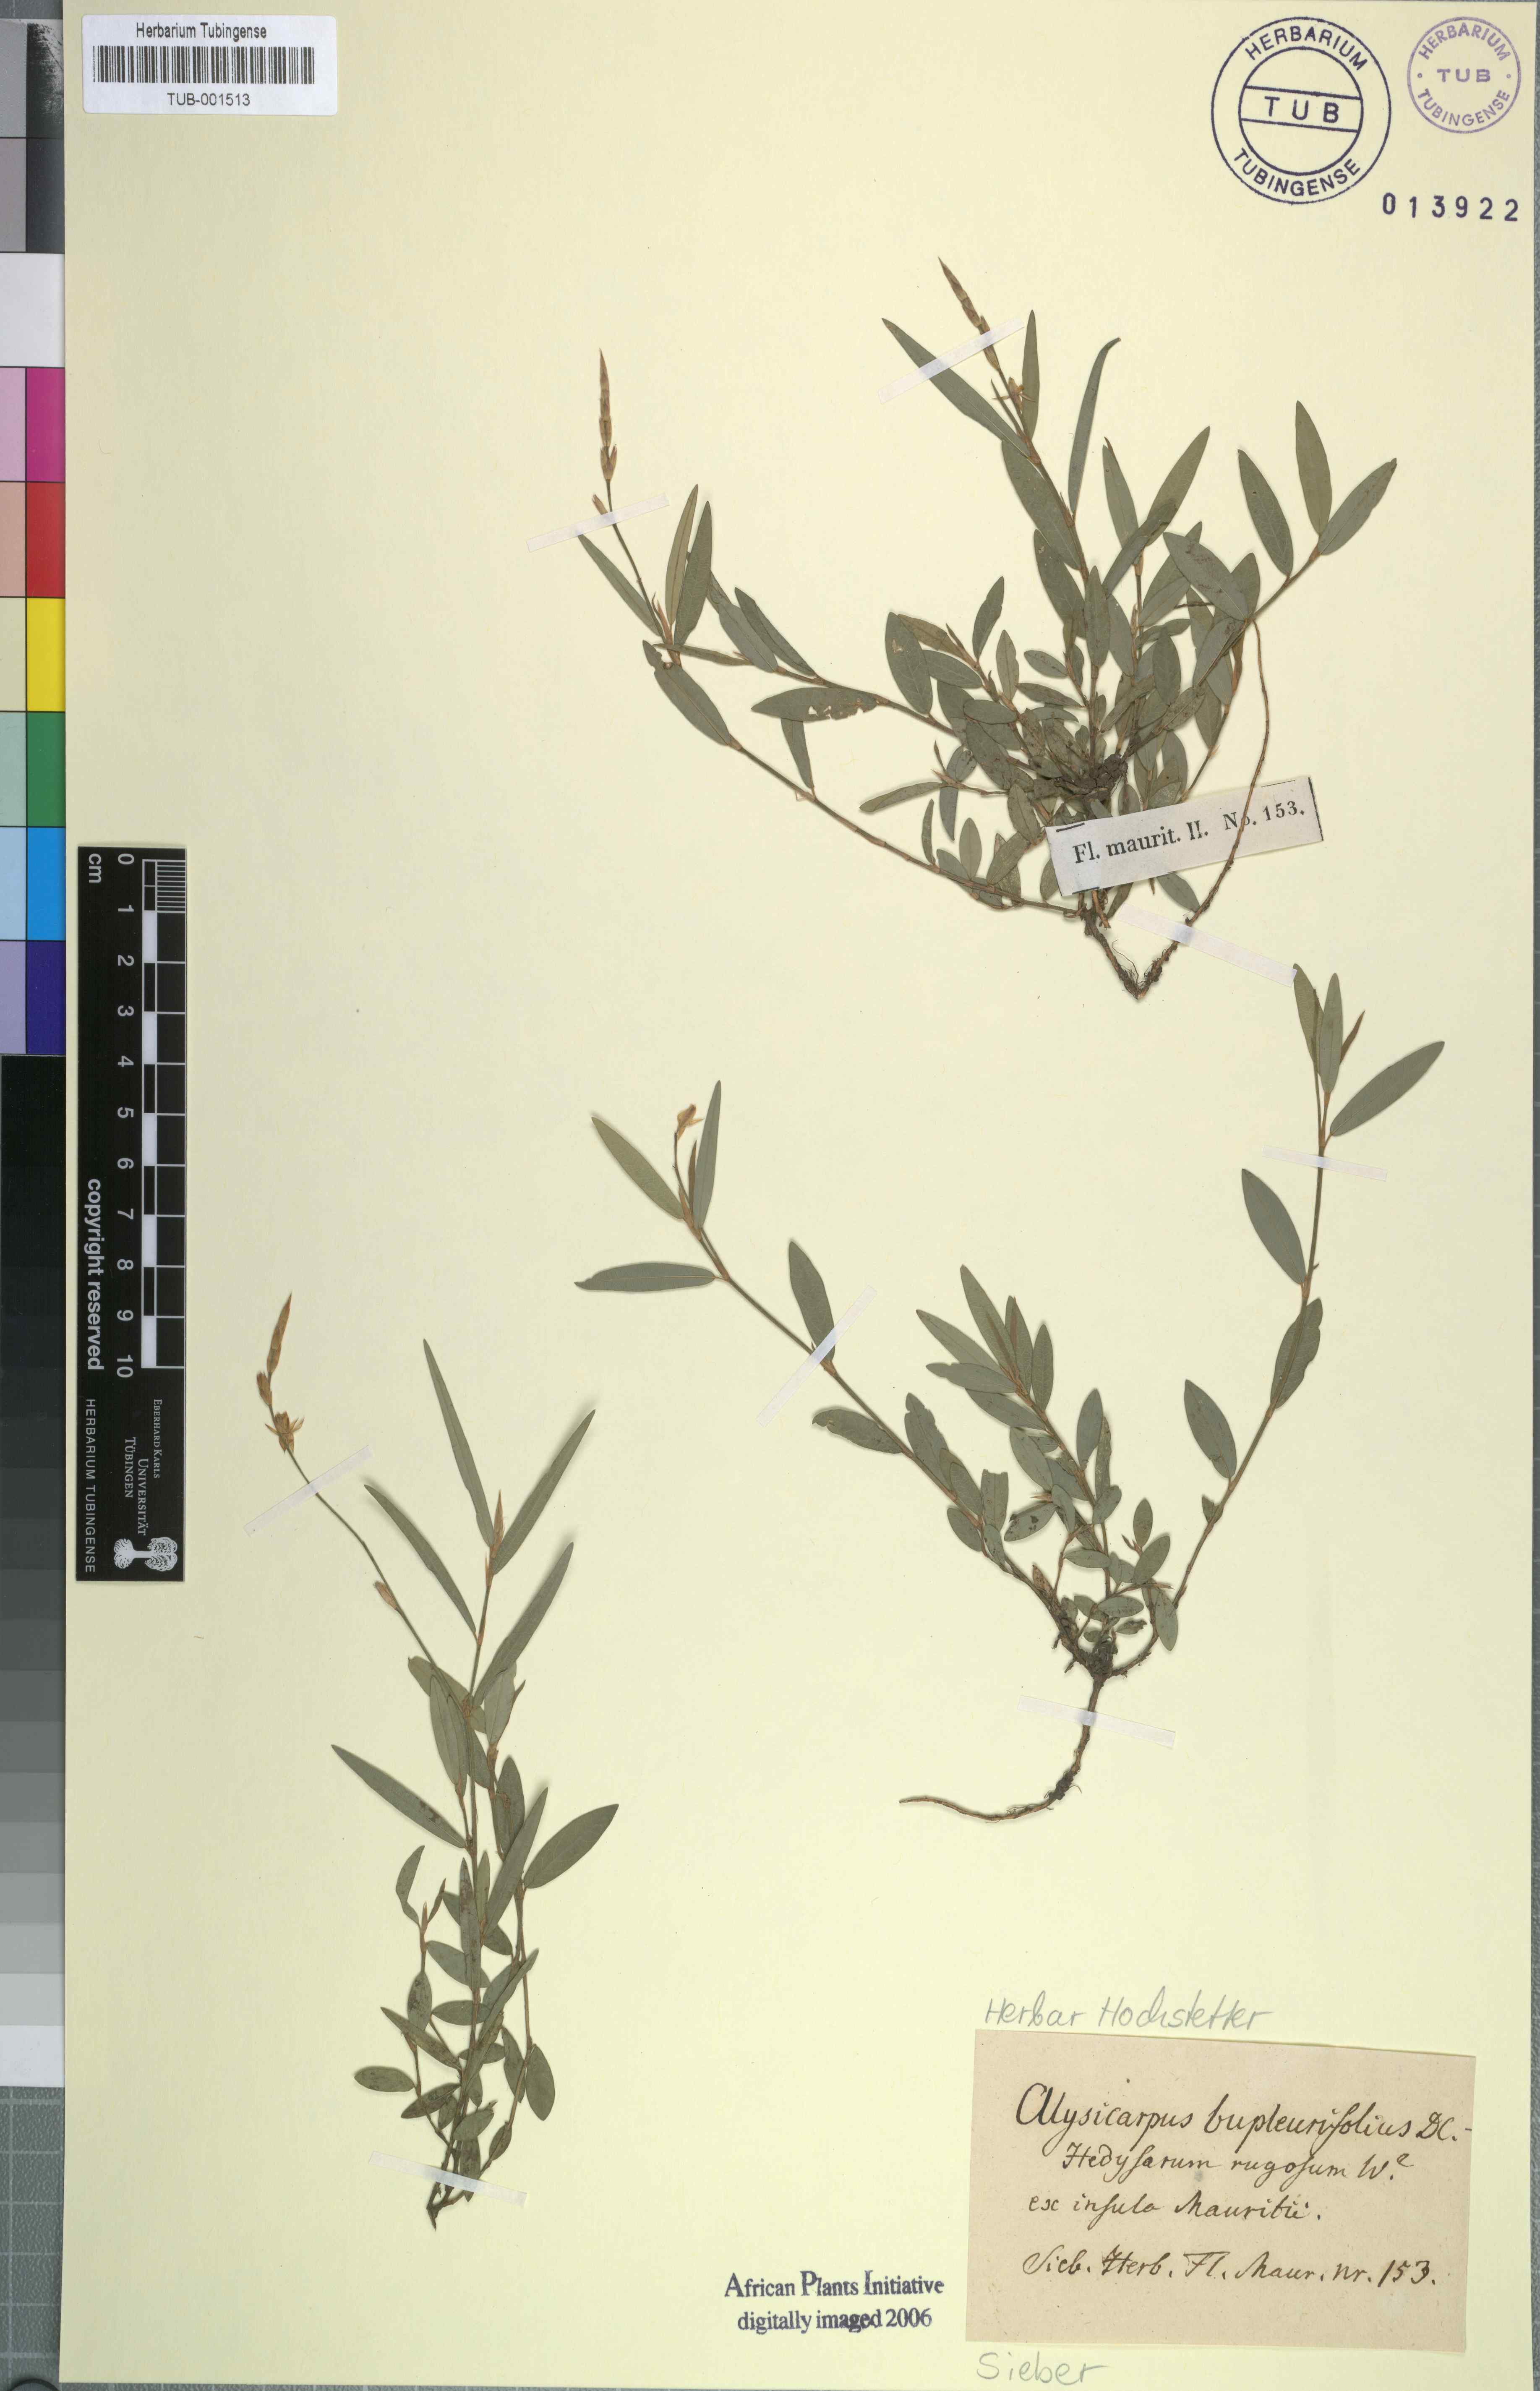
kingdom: Plantae
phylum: Tracheophyta
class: Magnoliopsida
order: Fabales
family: Fabaceae
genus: Alysicarpus
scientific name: Alysicarpus bupleurifolius
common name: Sweet alys
